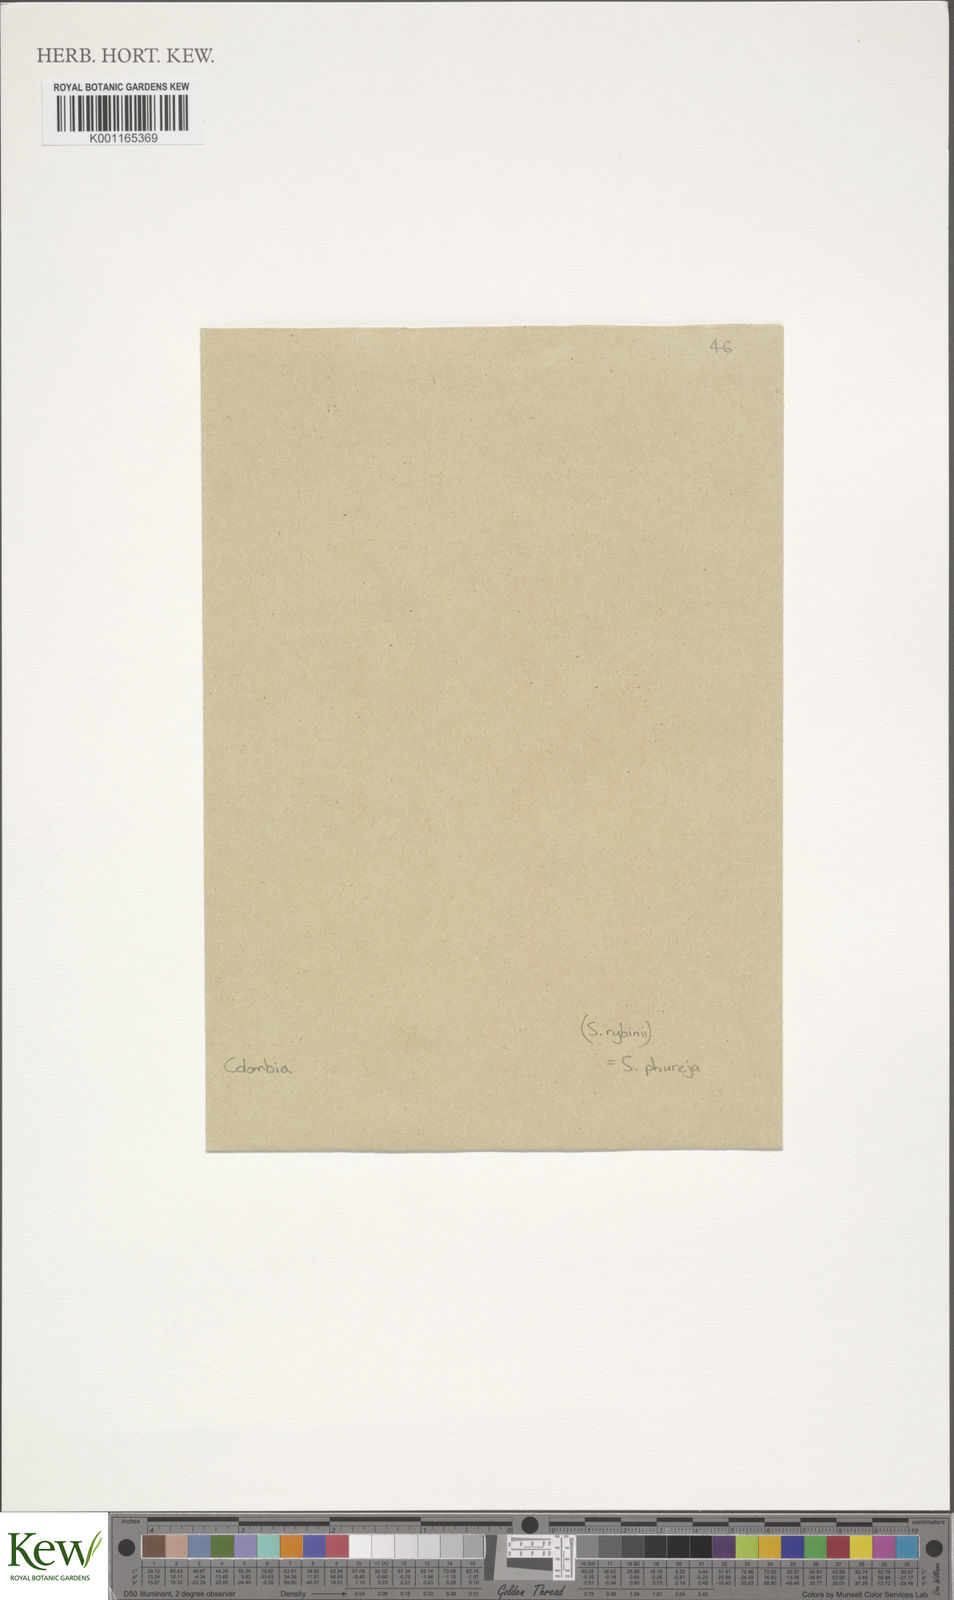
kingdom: Plantae
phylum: Tracheophyta
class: Magnoliopsida
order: Solanales
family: Solanaceae
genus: Solanum
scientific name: Solanum tuberosum
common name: Potato
